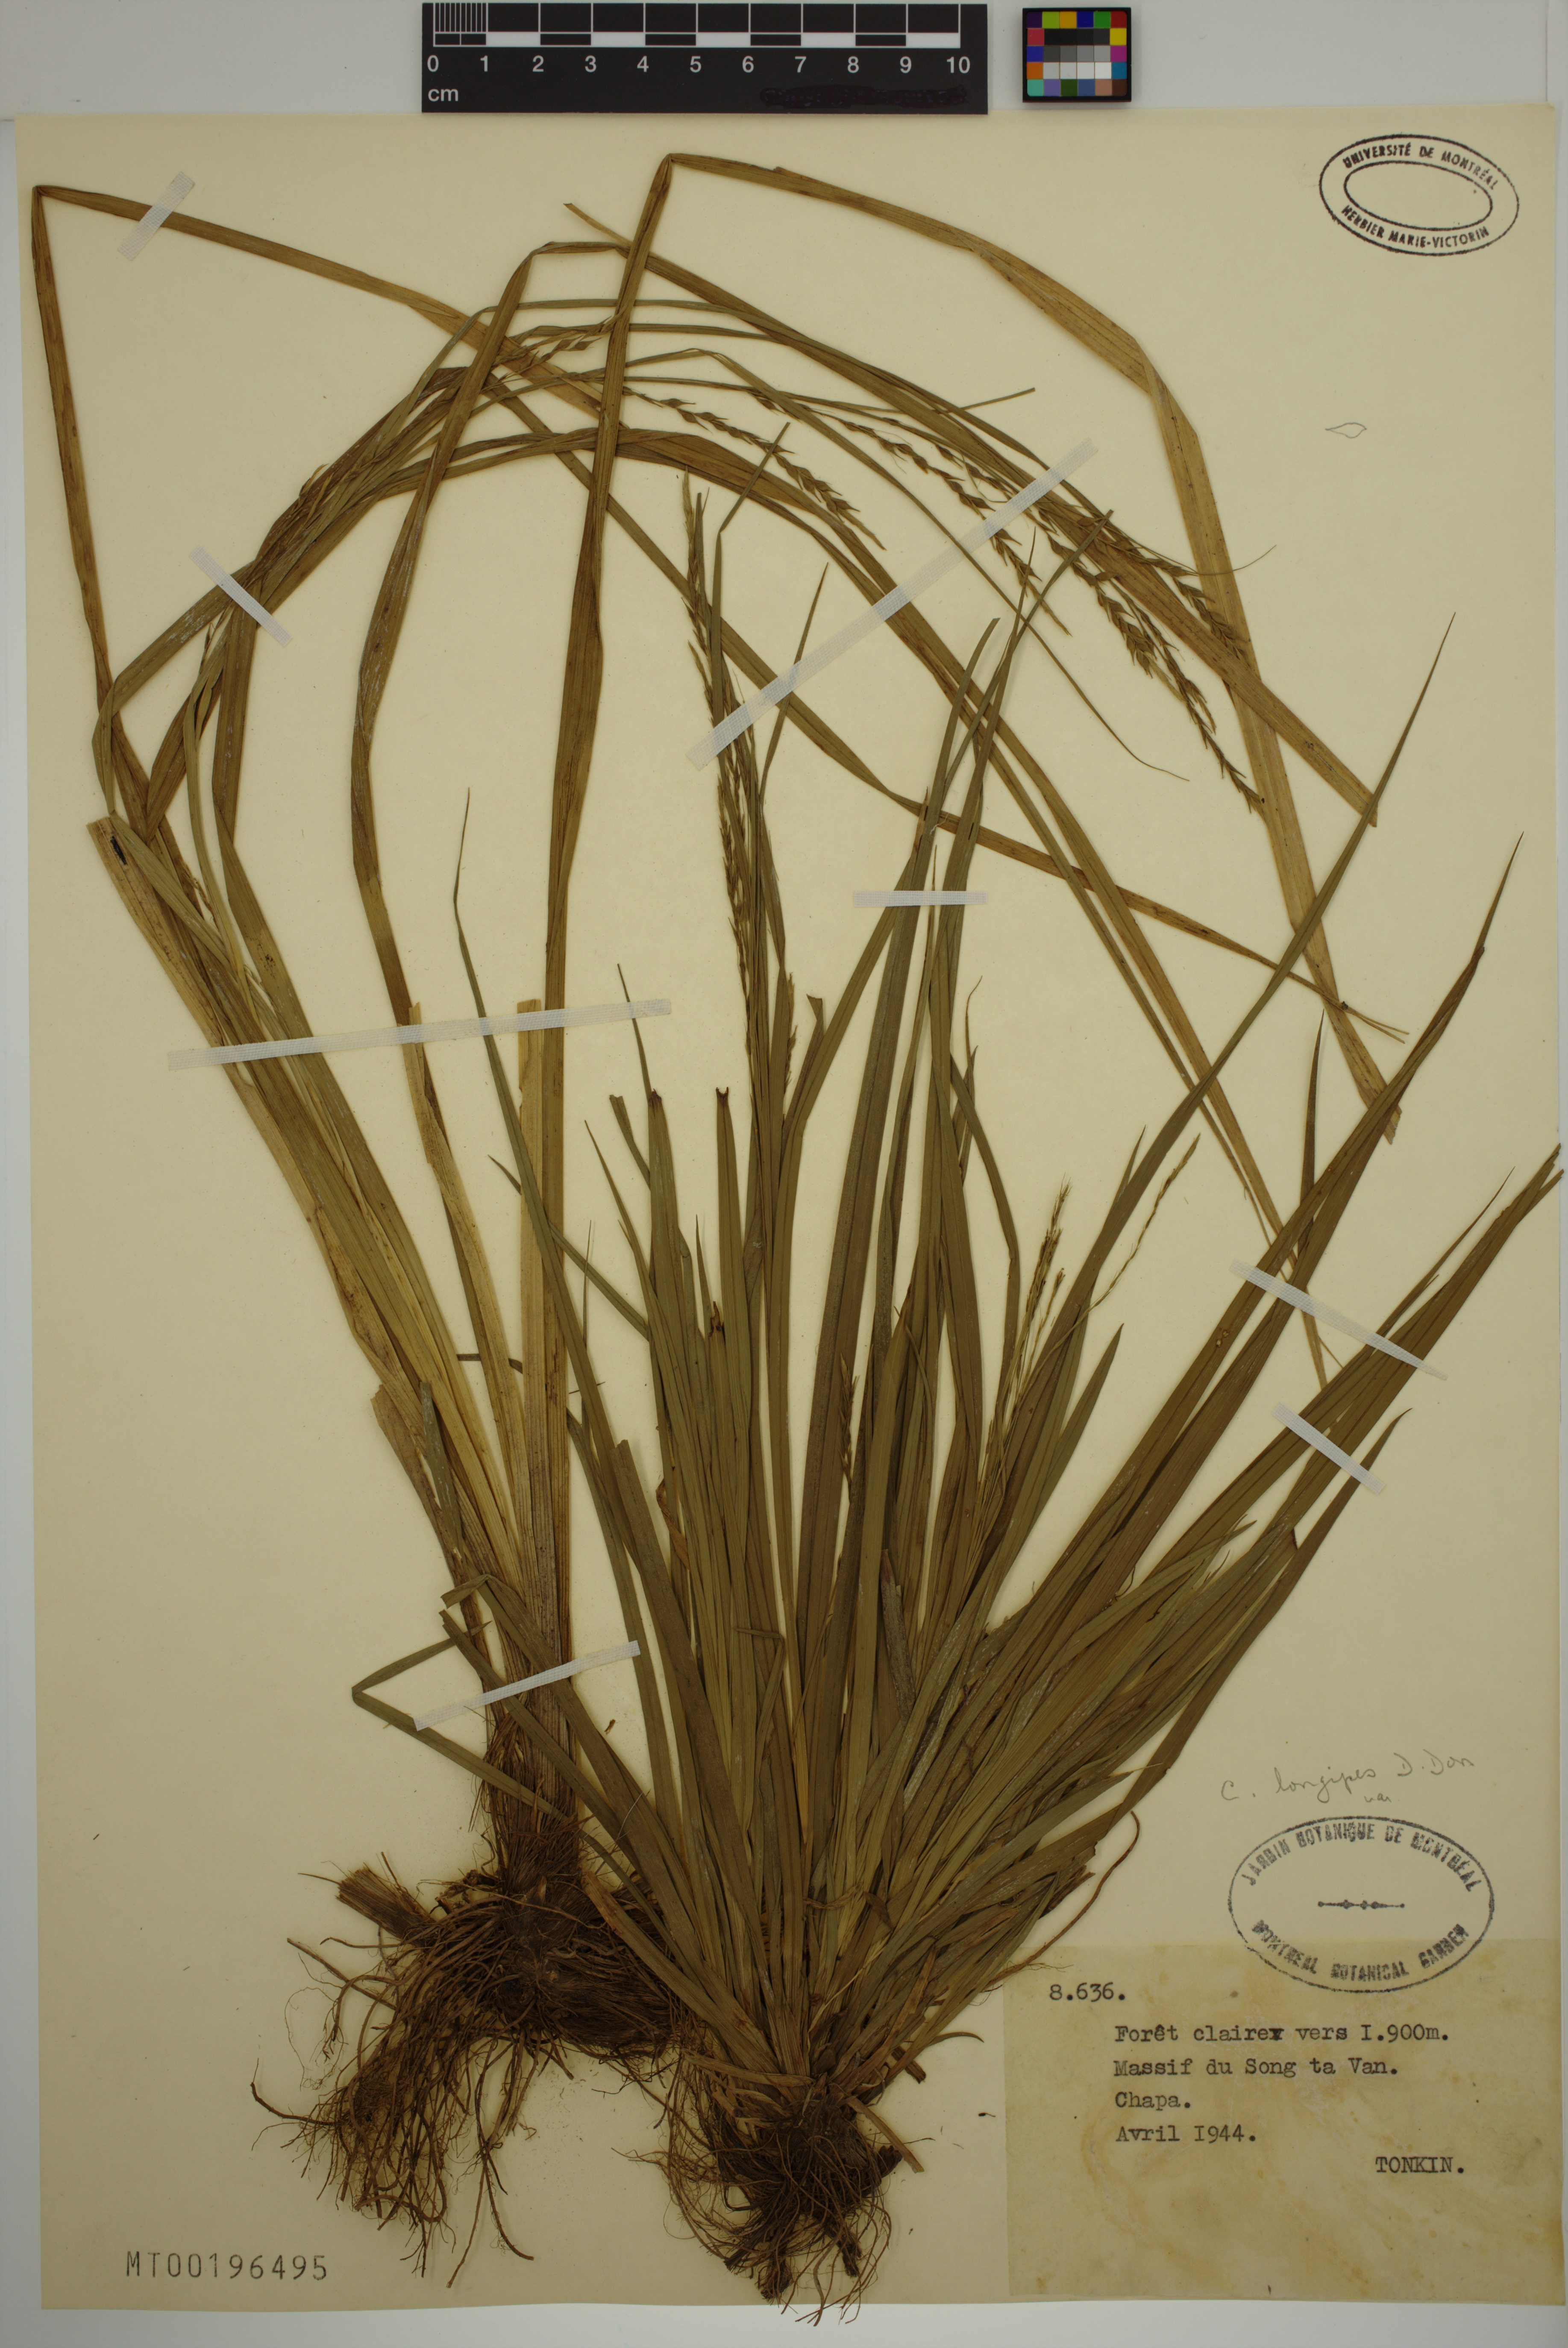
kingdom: Plantae
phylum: Tracheophyta
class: Liliopsida
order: Poales
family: Cyperaceae
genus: Carex
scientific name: Carex longipes
